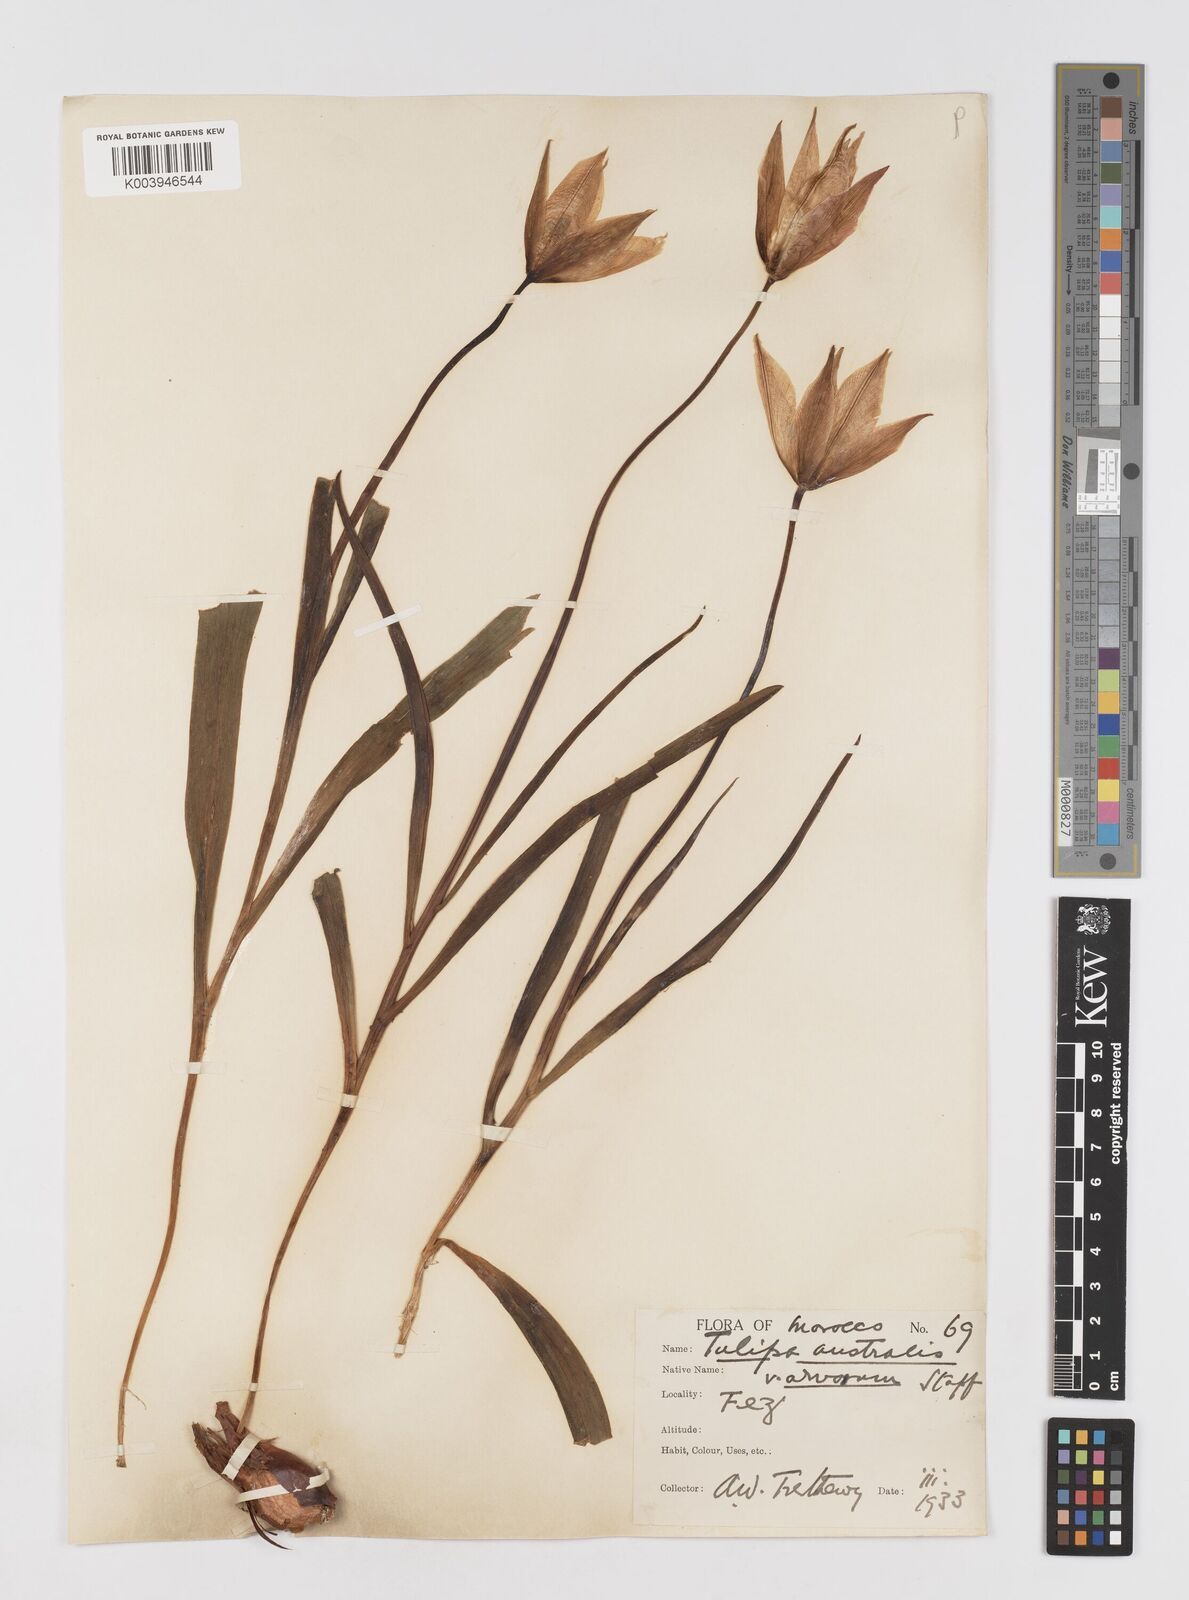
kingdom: Plantae
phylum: Tracheophyta
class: Liliopsida
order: Liliales
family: Liliaceae
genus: Tulipa
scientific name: Tulipa sylvestris
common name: Wild tulip
